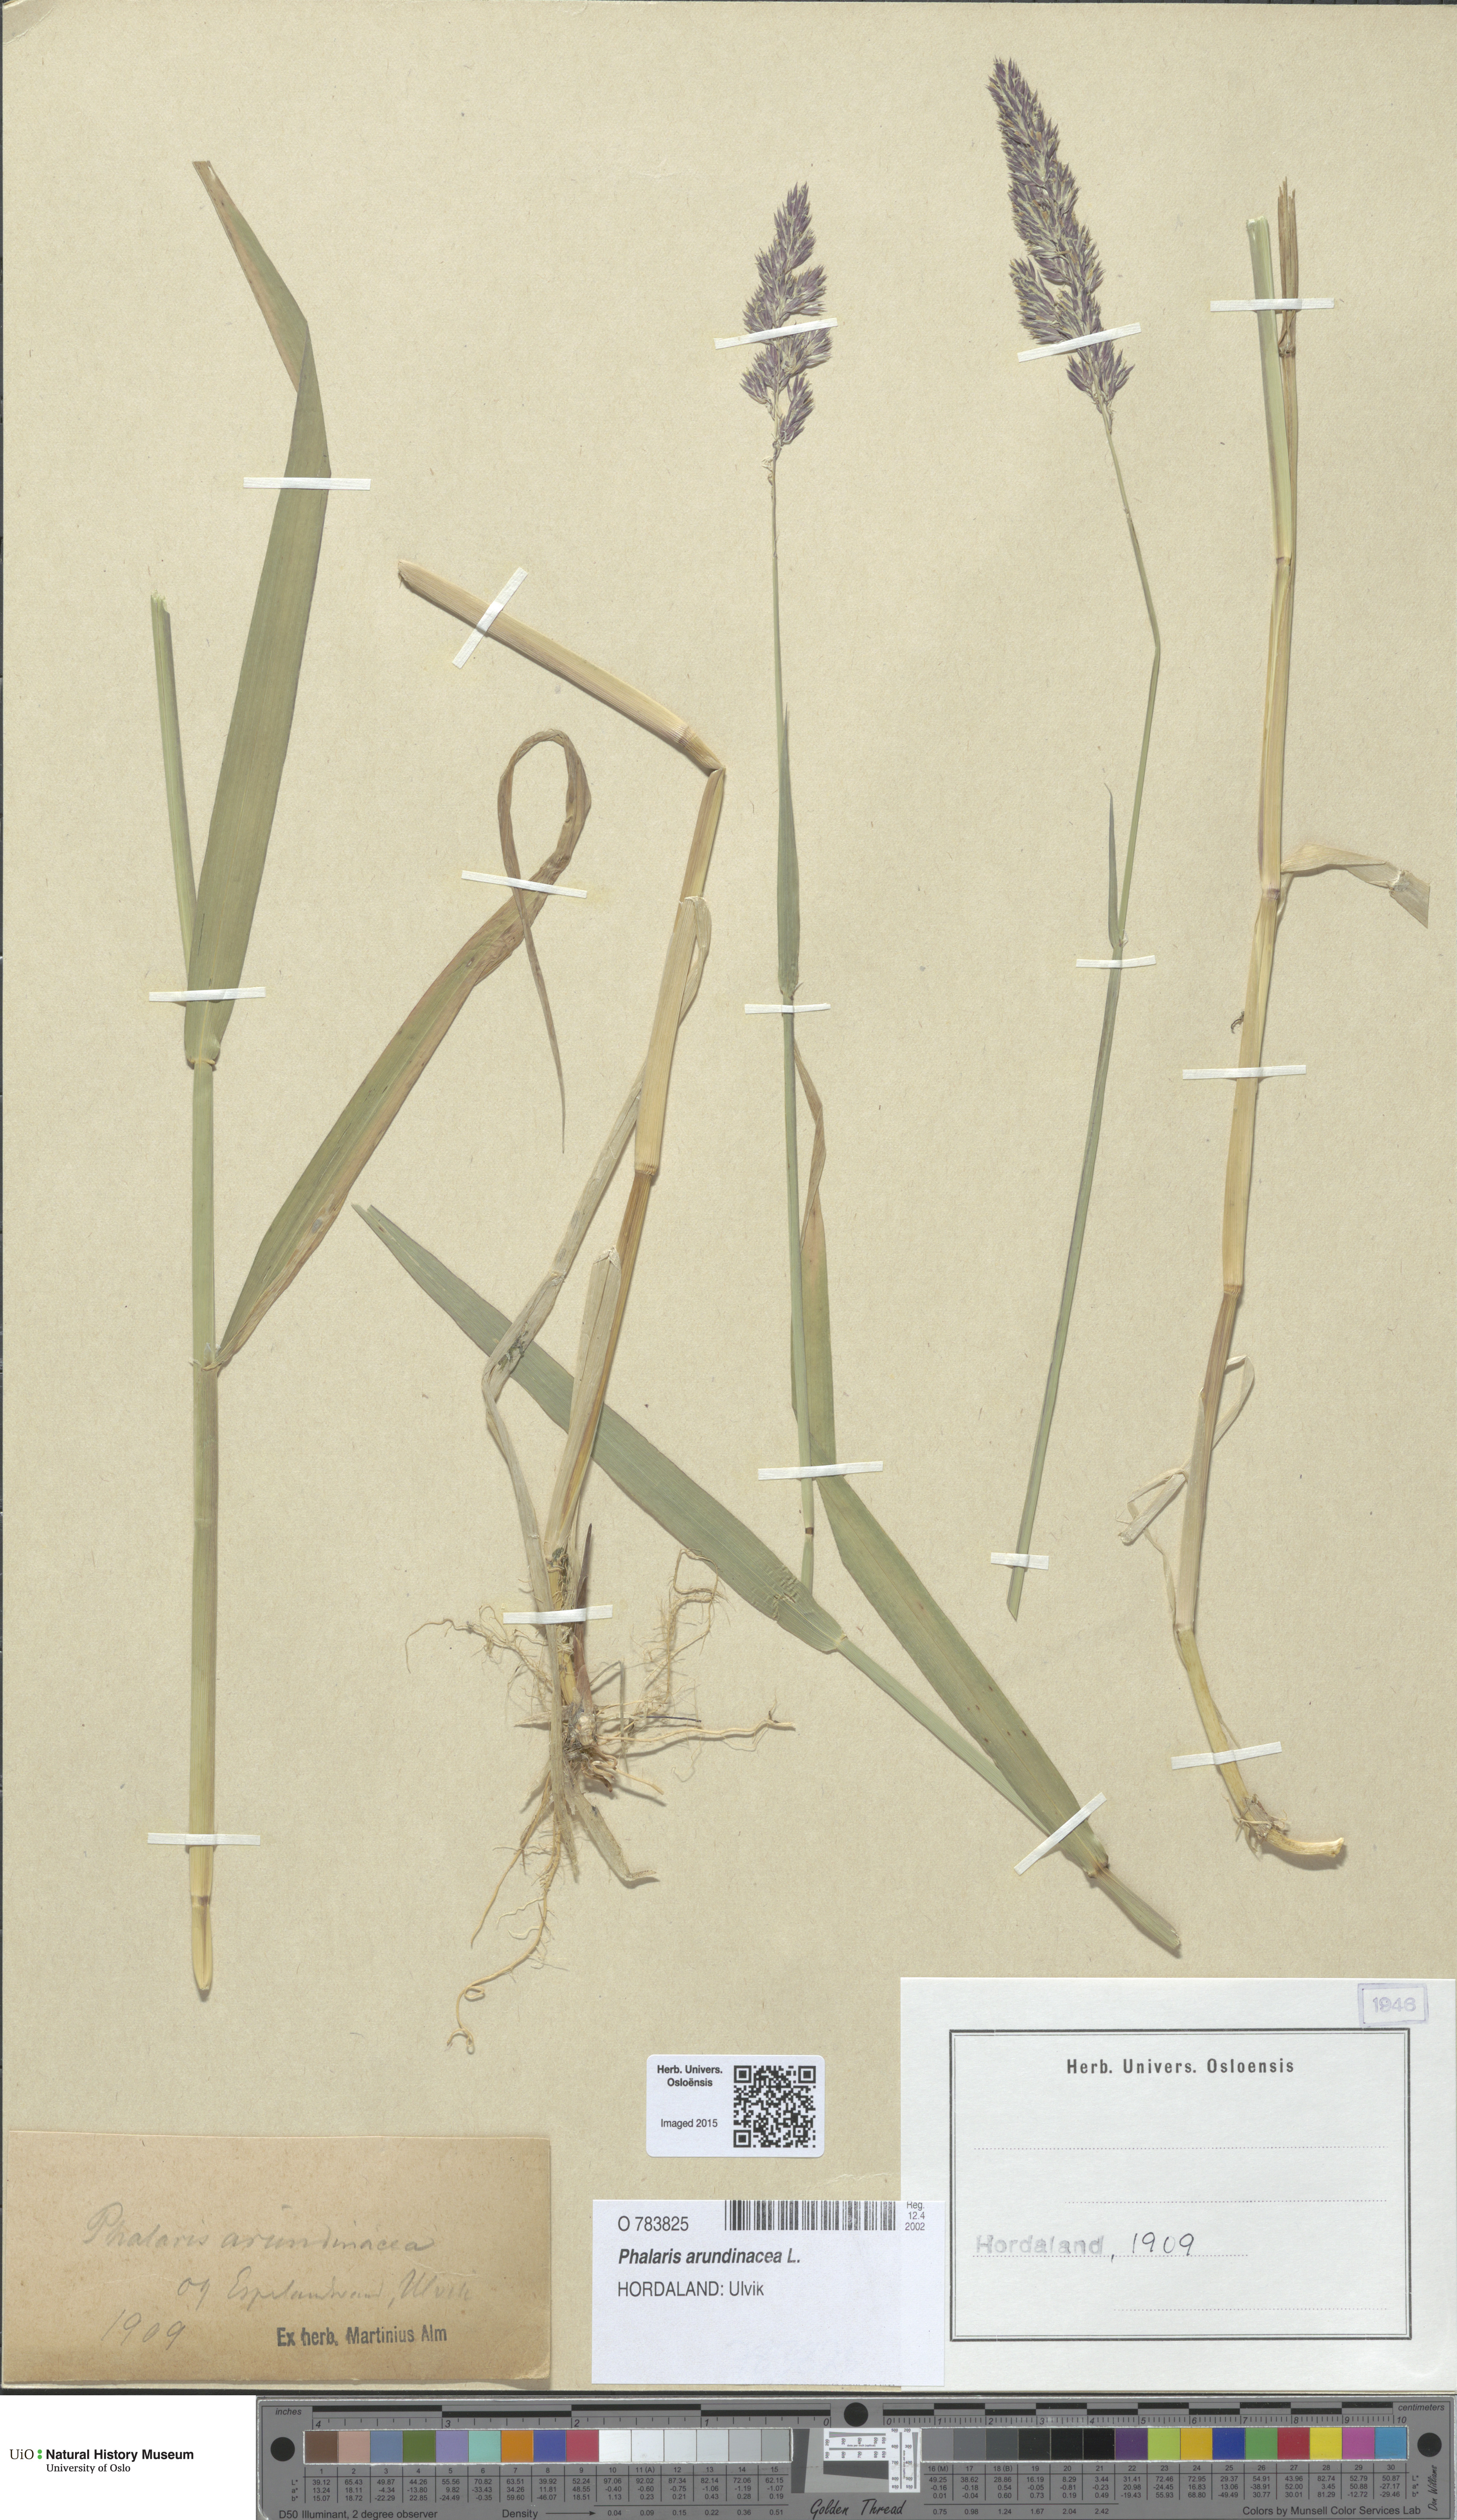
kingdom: Plantae
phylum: Tracheophyta
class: Liliopsida
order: Poales
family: Poaceae
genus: Phalaris
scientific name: Phalaris arundinacea
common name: Reed canary-grass
